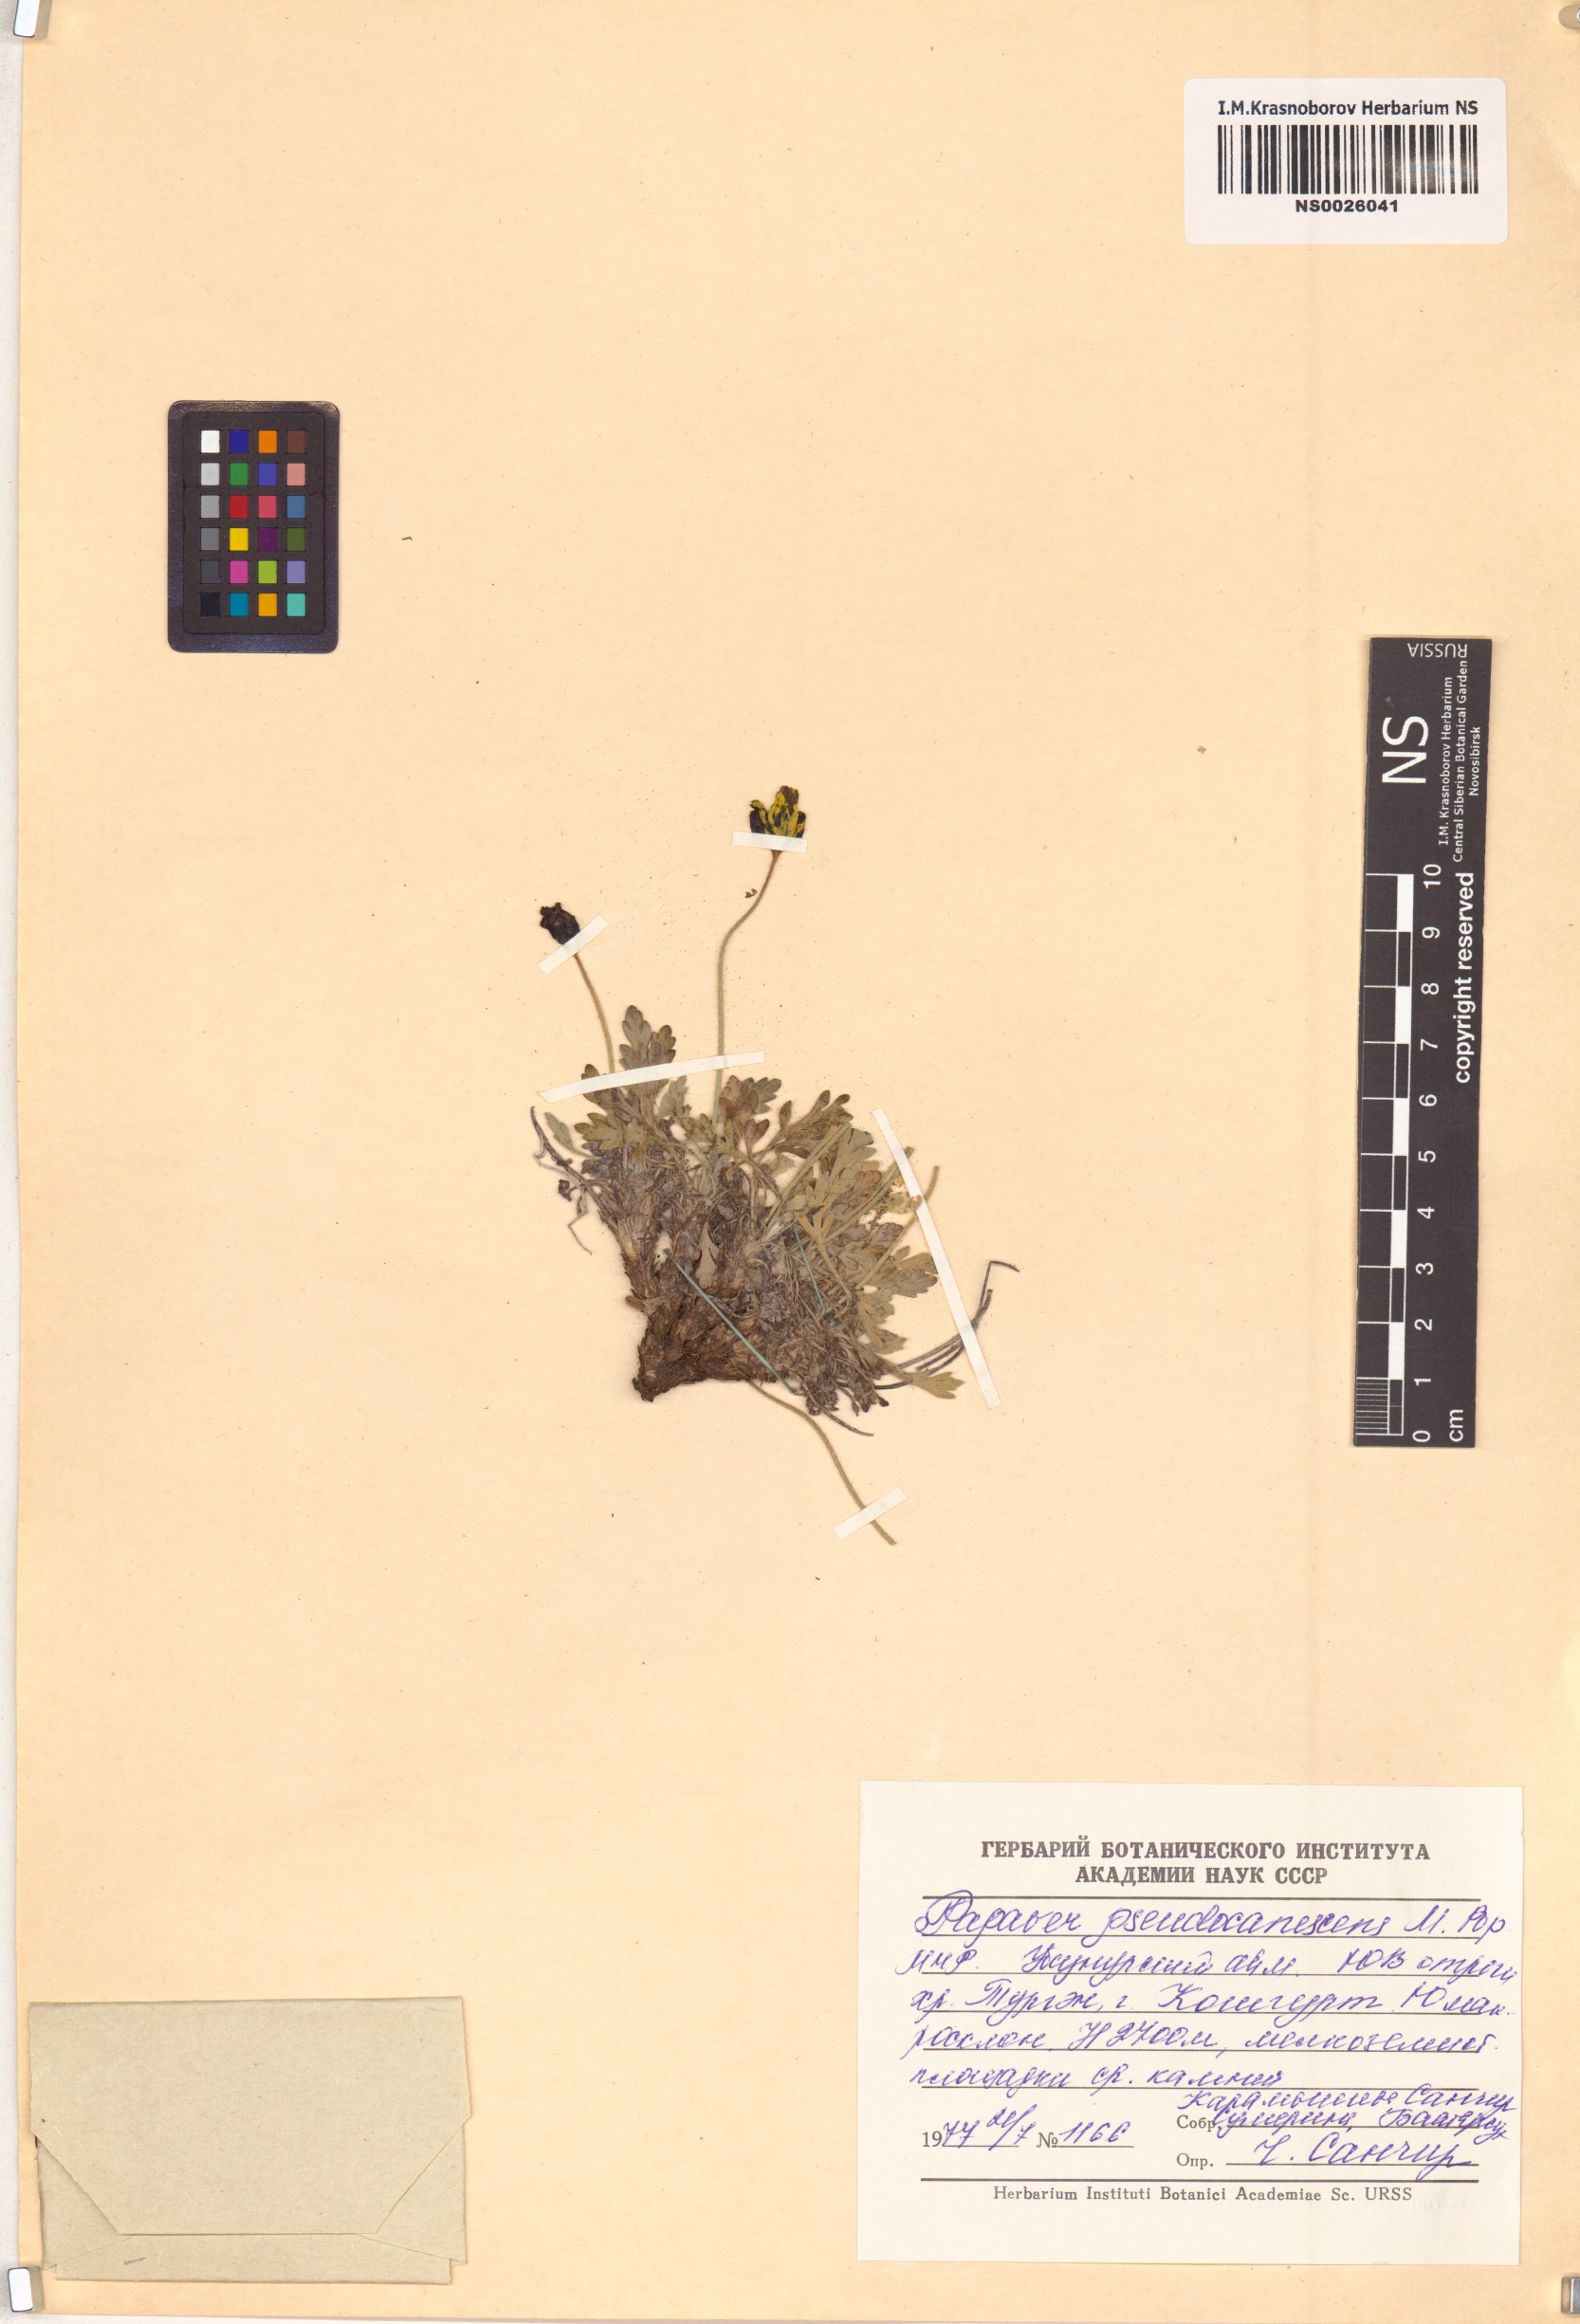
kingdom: Plantae
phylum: Tracheophyta
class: Magnoliopsida
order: Ranunculales
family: Papaveraceae
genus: Papaver
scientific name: Papaver canescens
